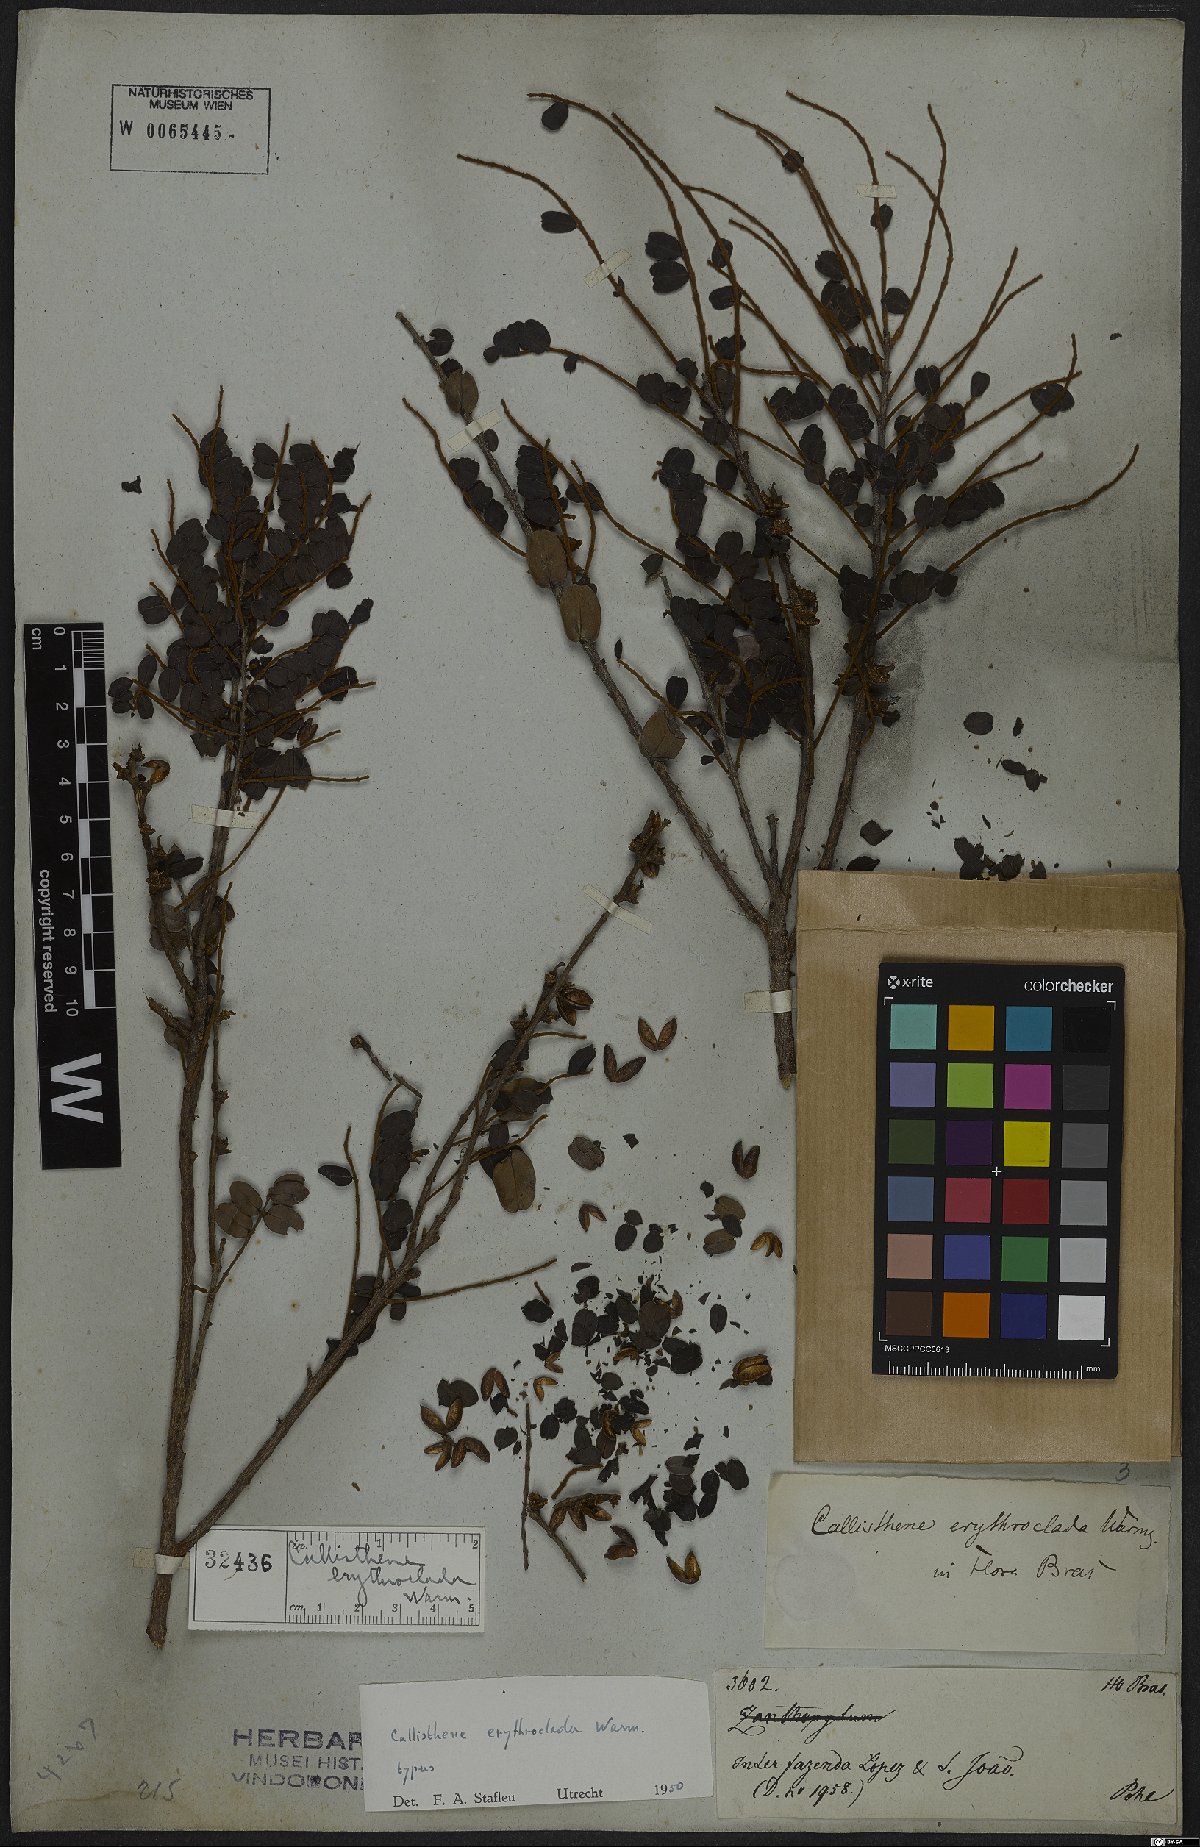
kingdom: Plantae
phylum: Tracheophyta
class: Magnoliopsida
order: Myrtales
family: Vochysiaceae
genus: Callisthene
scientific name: Callisthene erythroclada
